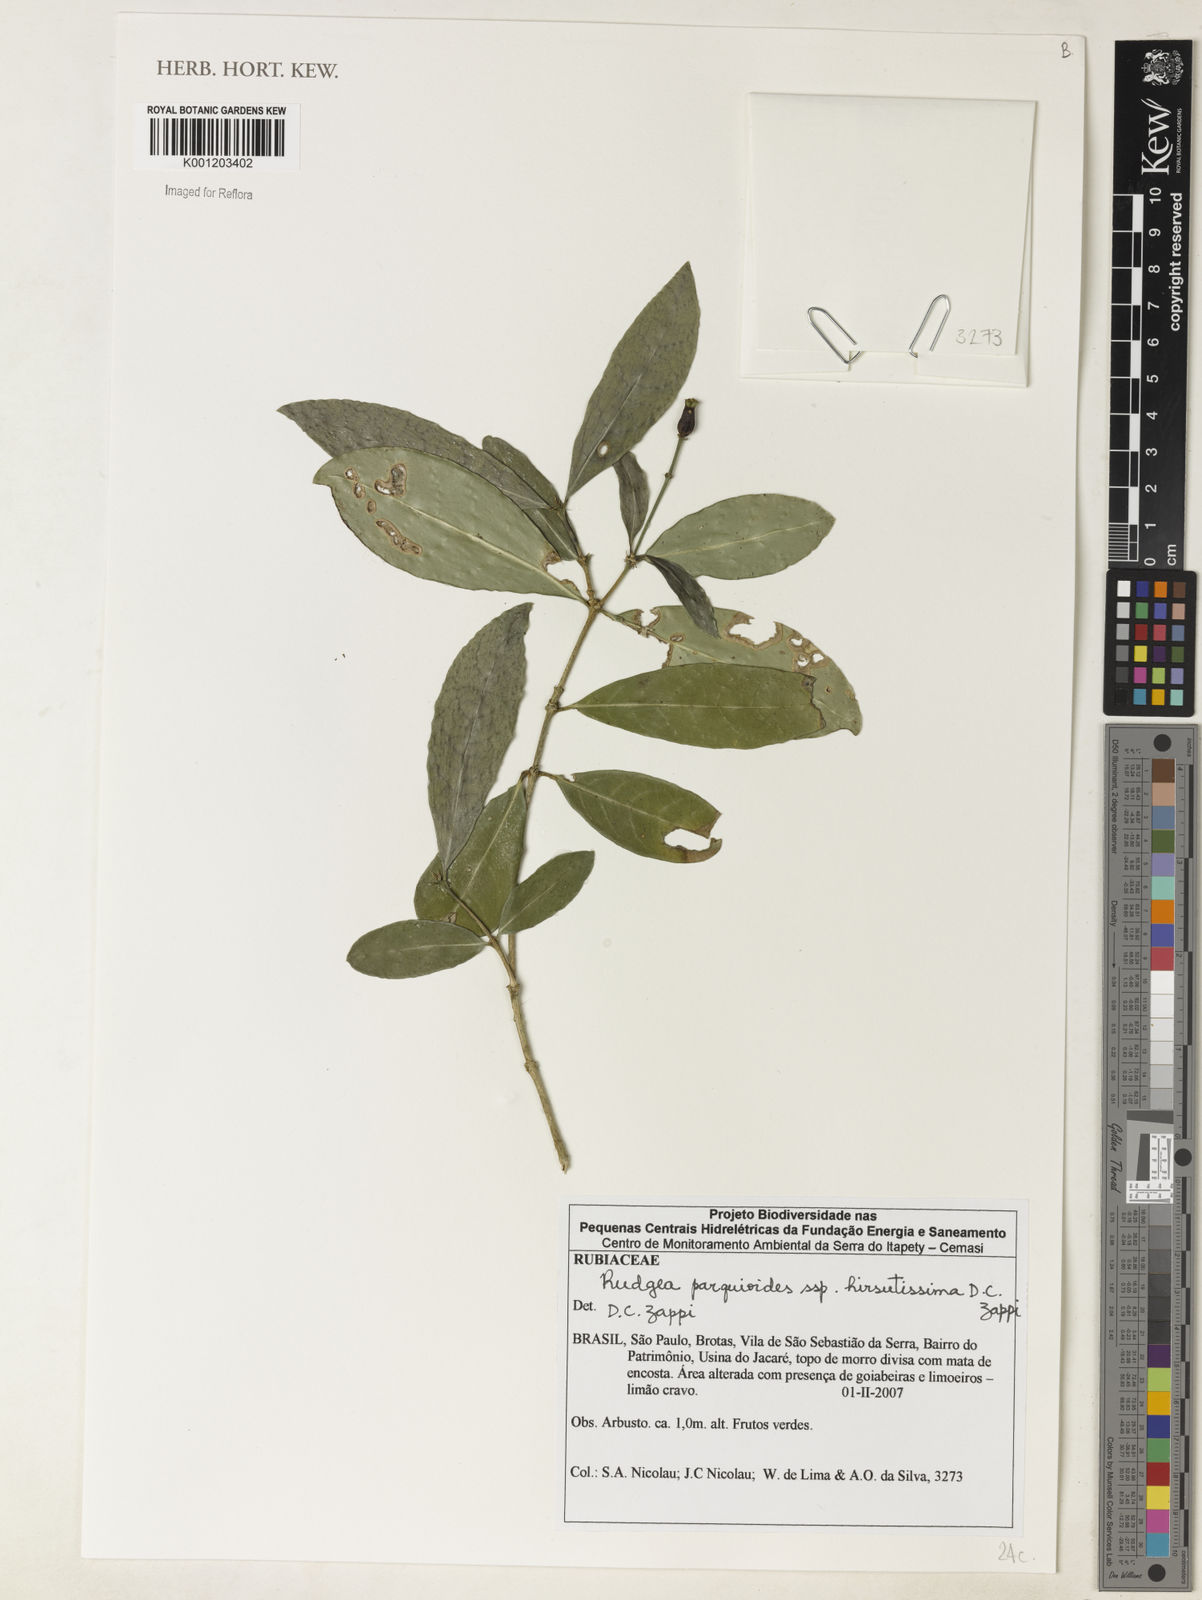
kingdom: Plantae
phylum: Tracheophyta
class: Magnoliopsida
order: Gentianales
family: Rubiaceae
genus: Rudgea
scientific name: Rudgea
